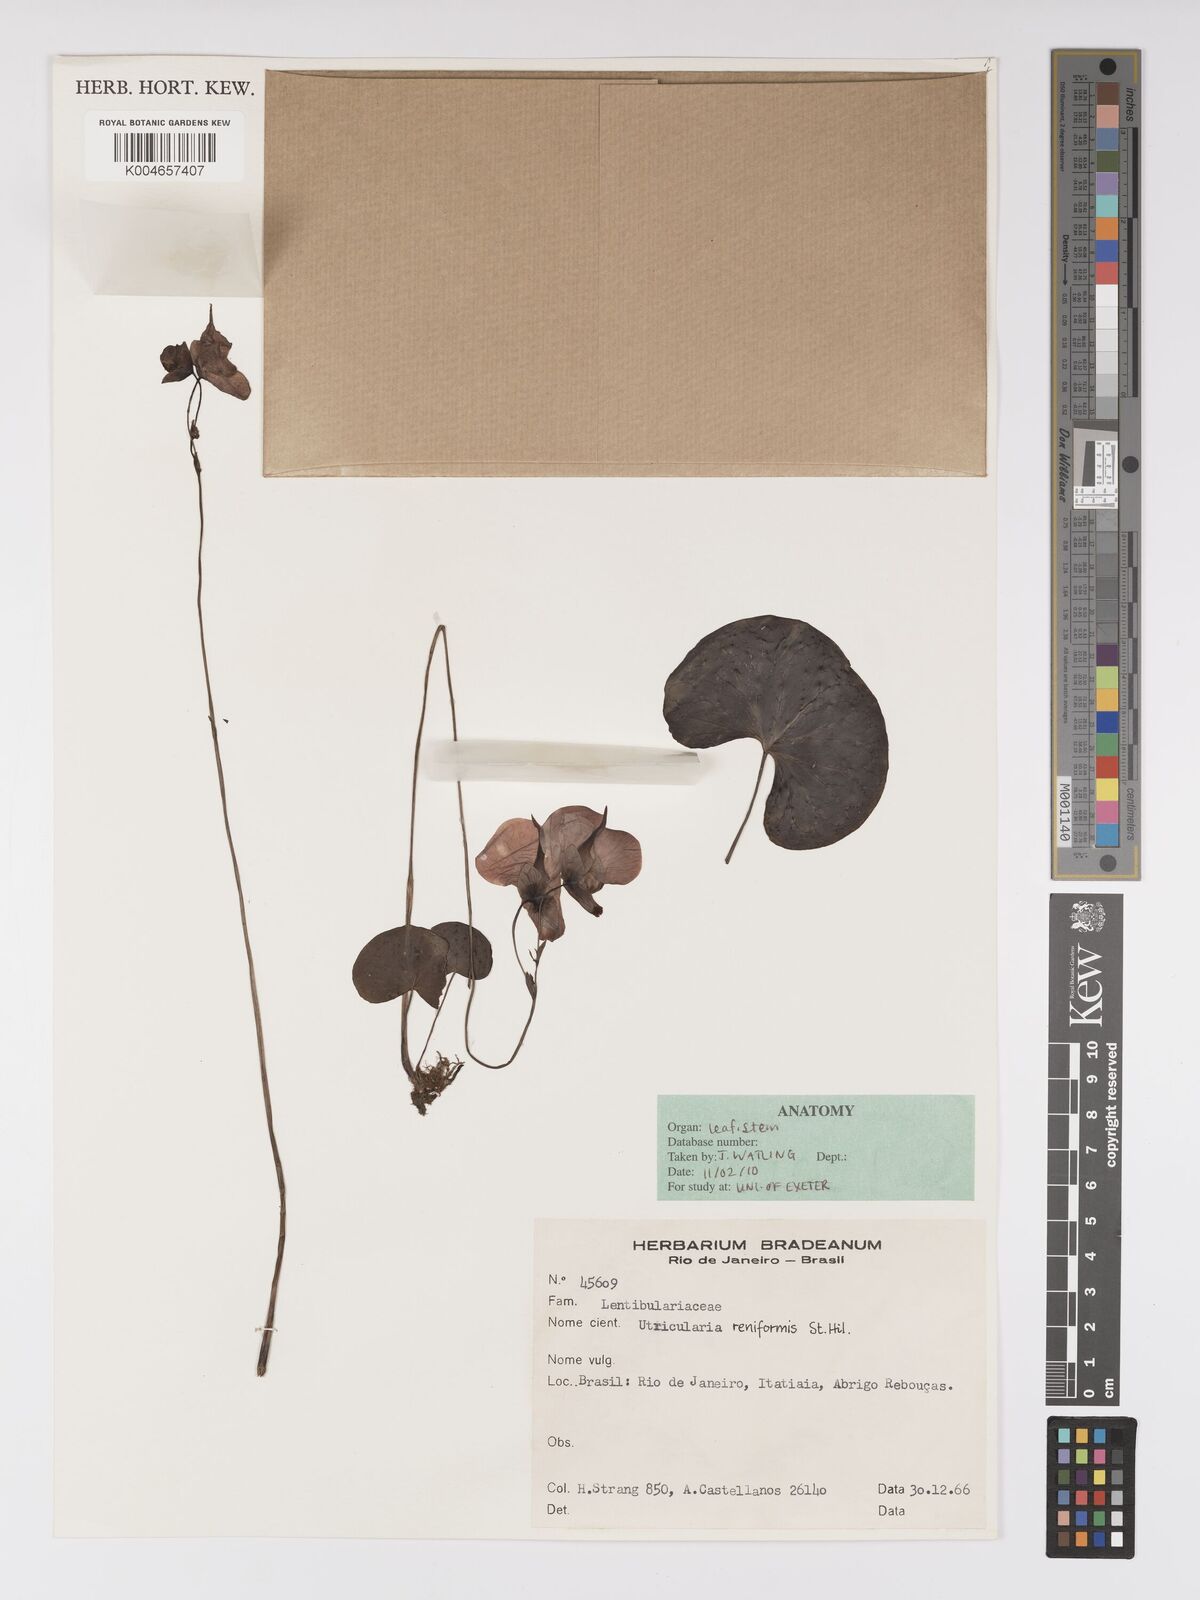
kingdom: Plantae
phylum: Tracheophyta
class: Magnoliopsida
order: Lamiales
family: Lentibulariaceae
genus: Utricularia
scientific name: Utricularia reniformis
